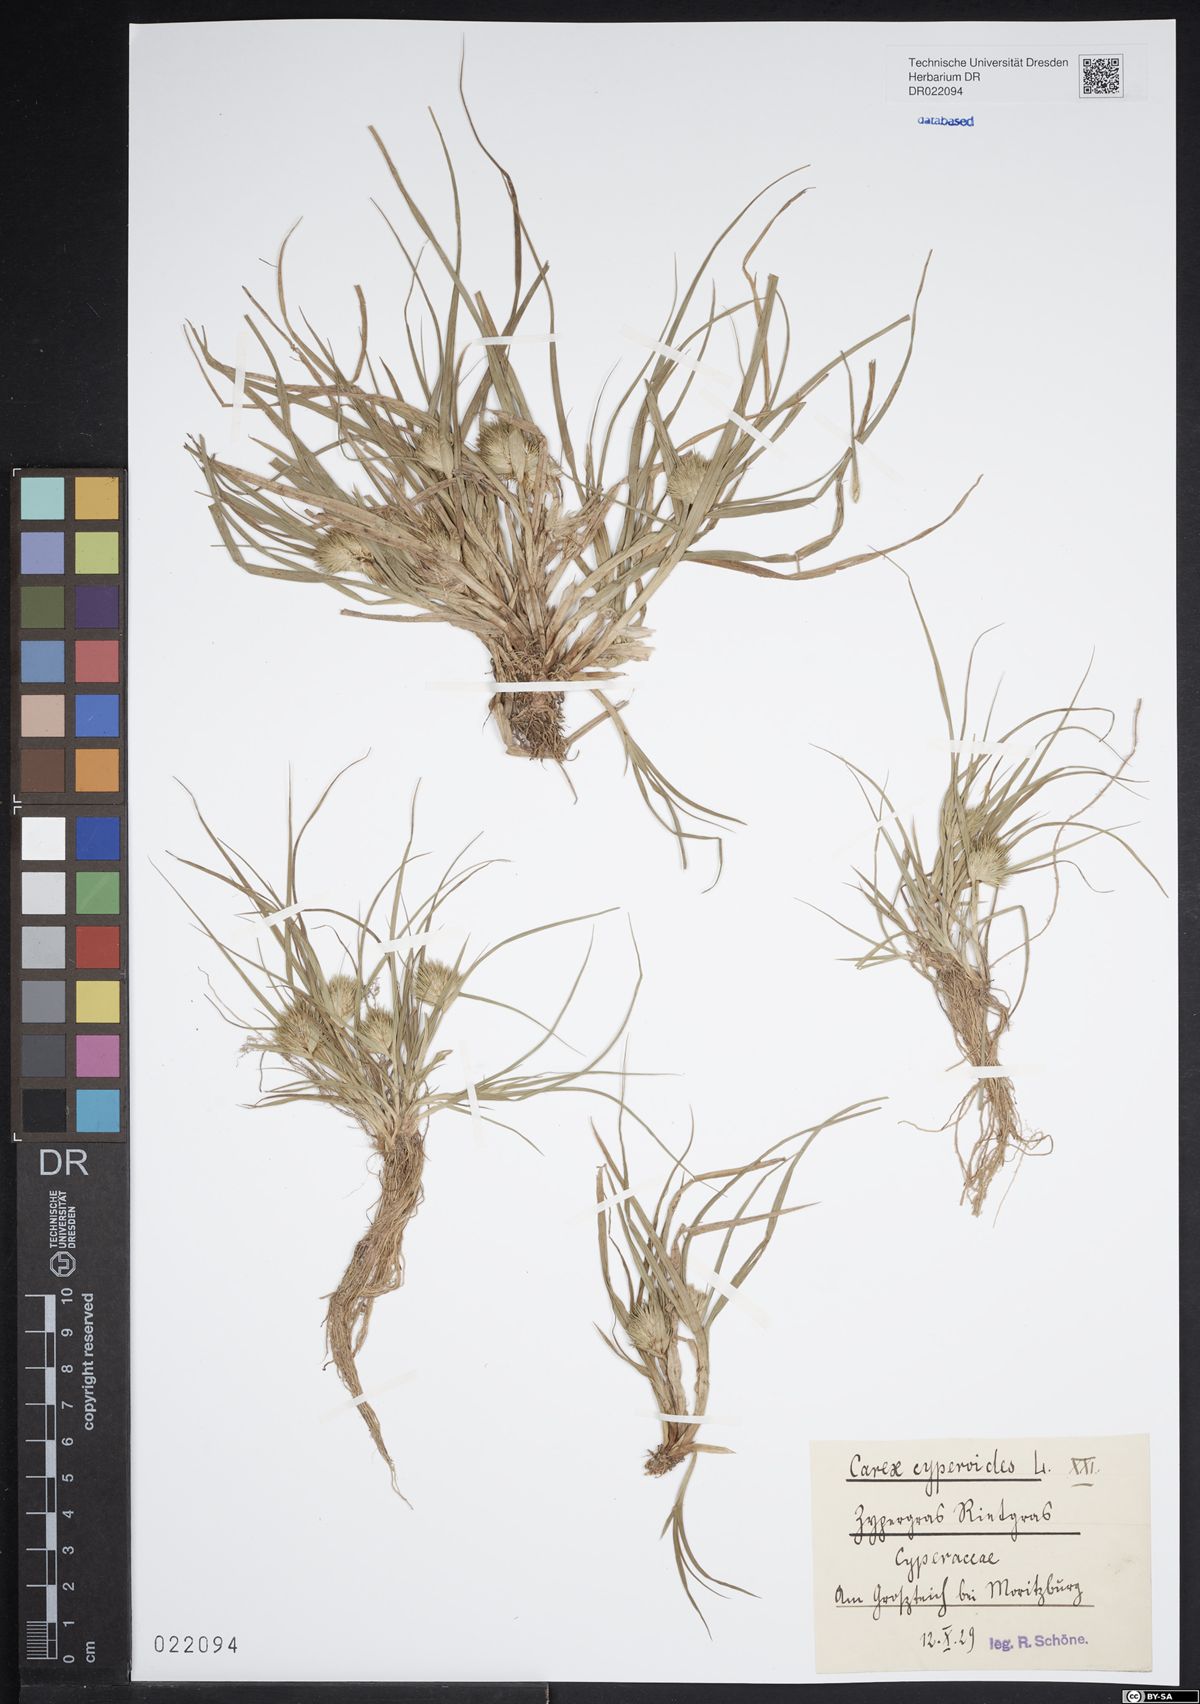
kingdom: Plantae
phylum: Tracheophyta
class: Liliopsida
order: Poales
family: Cyperaceae
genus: Carex
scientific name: Carex bohemica
